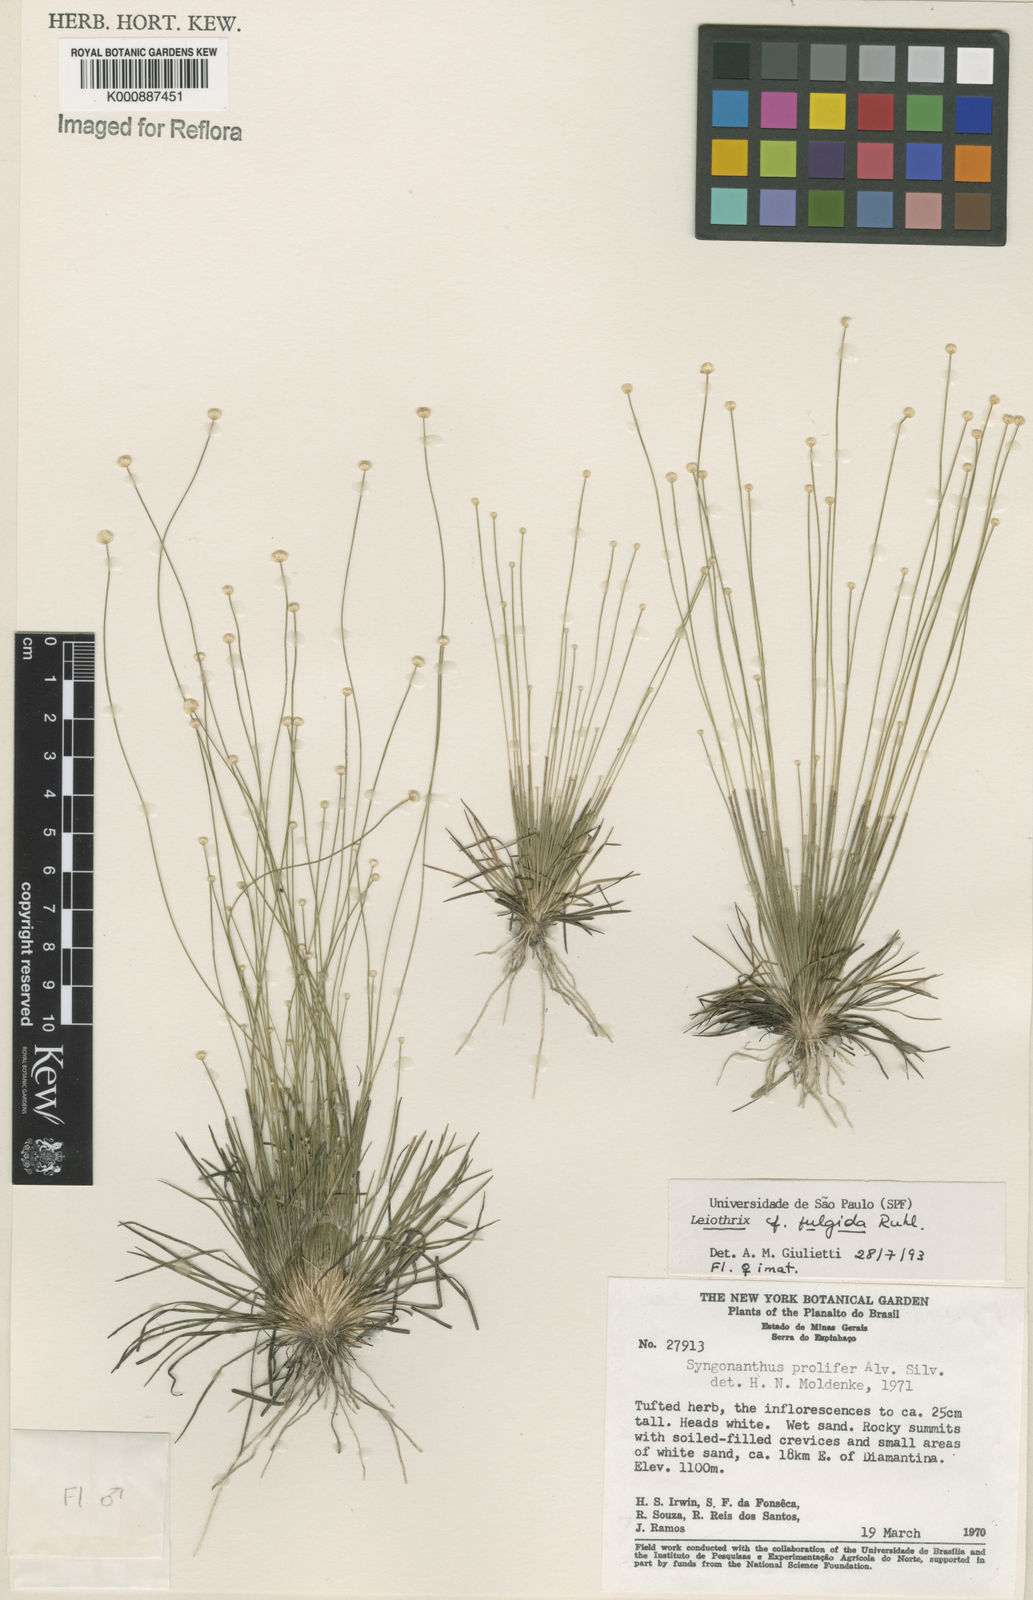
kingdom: Plantae
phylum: Tracheophyta
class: Liliopsida
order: Poales
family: Eriocaulaceae
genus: Leiothrix
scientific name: Leiothrix fulgida
